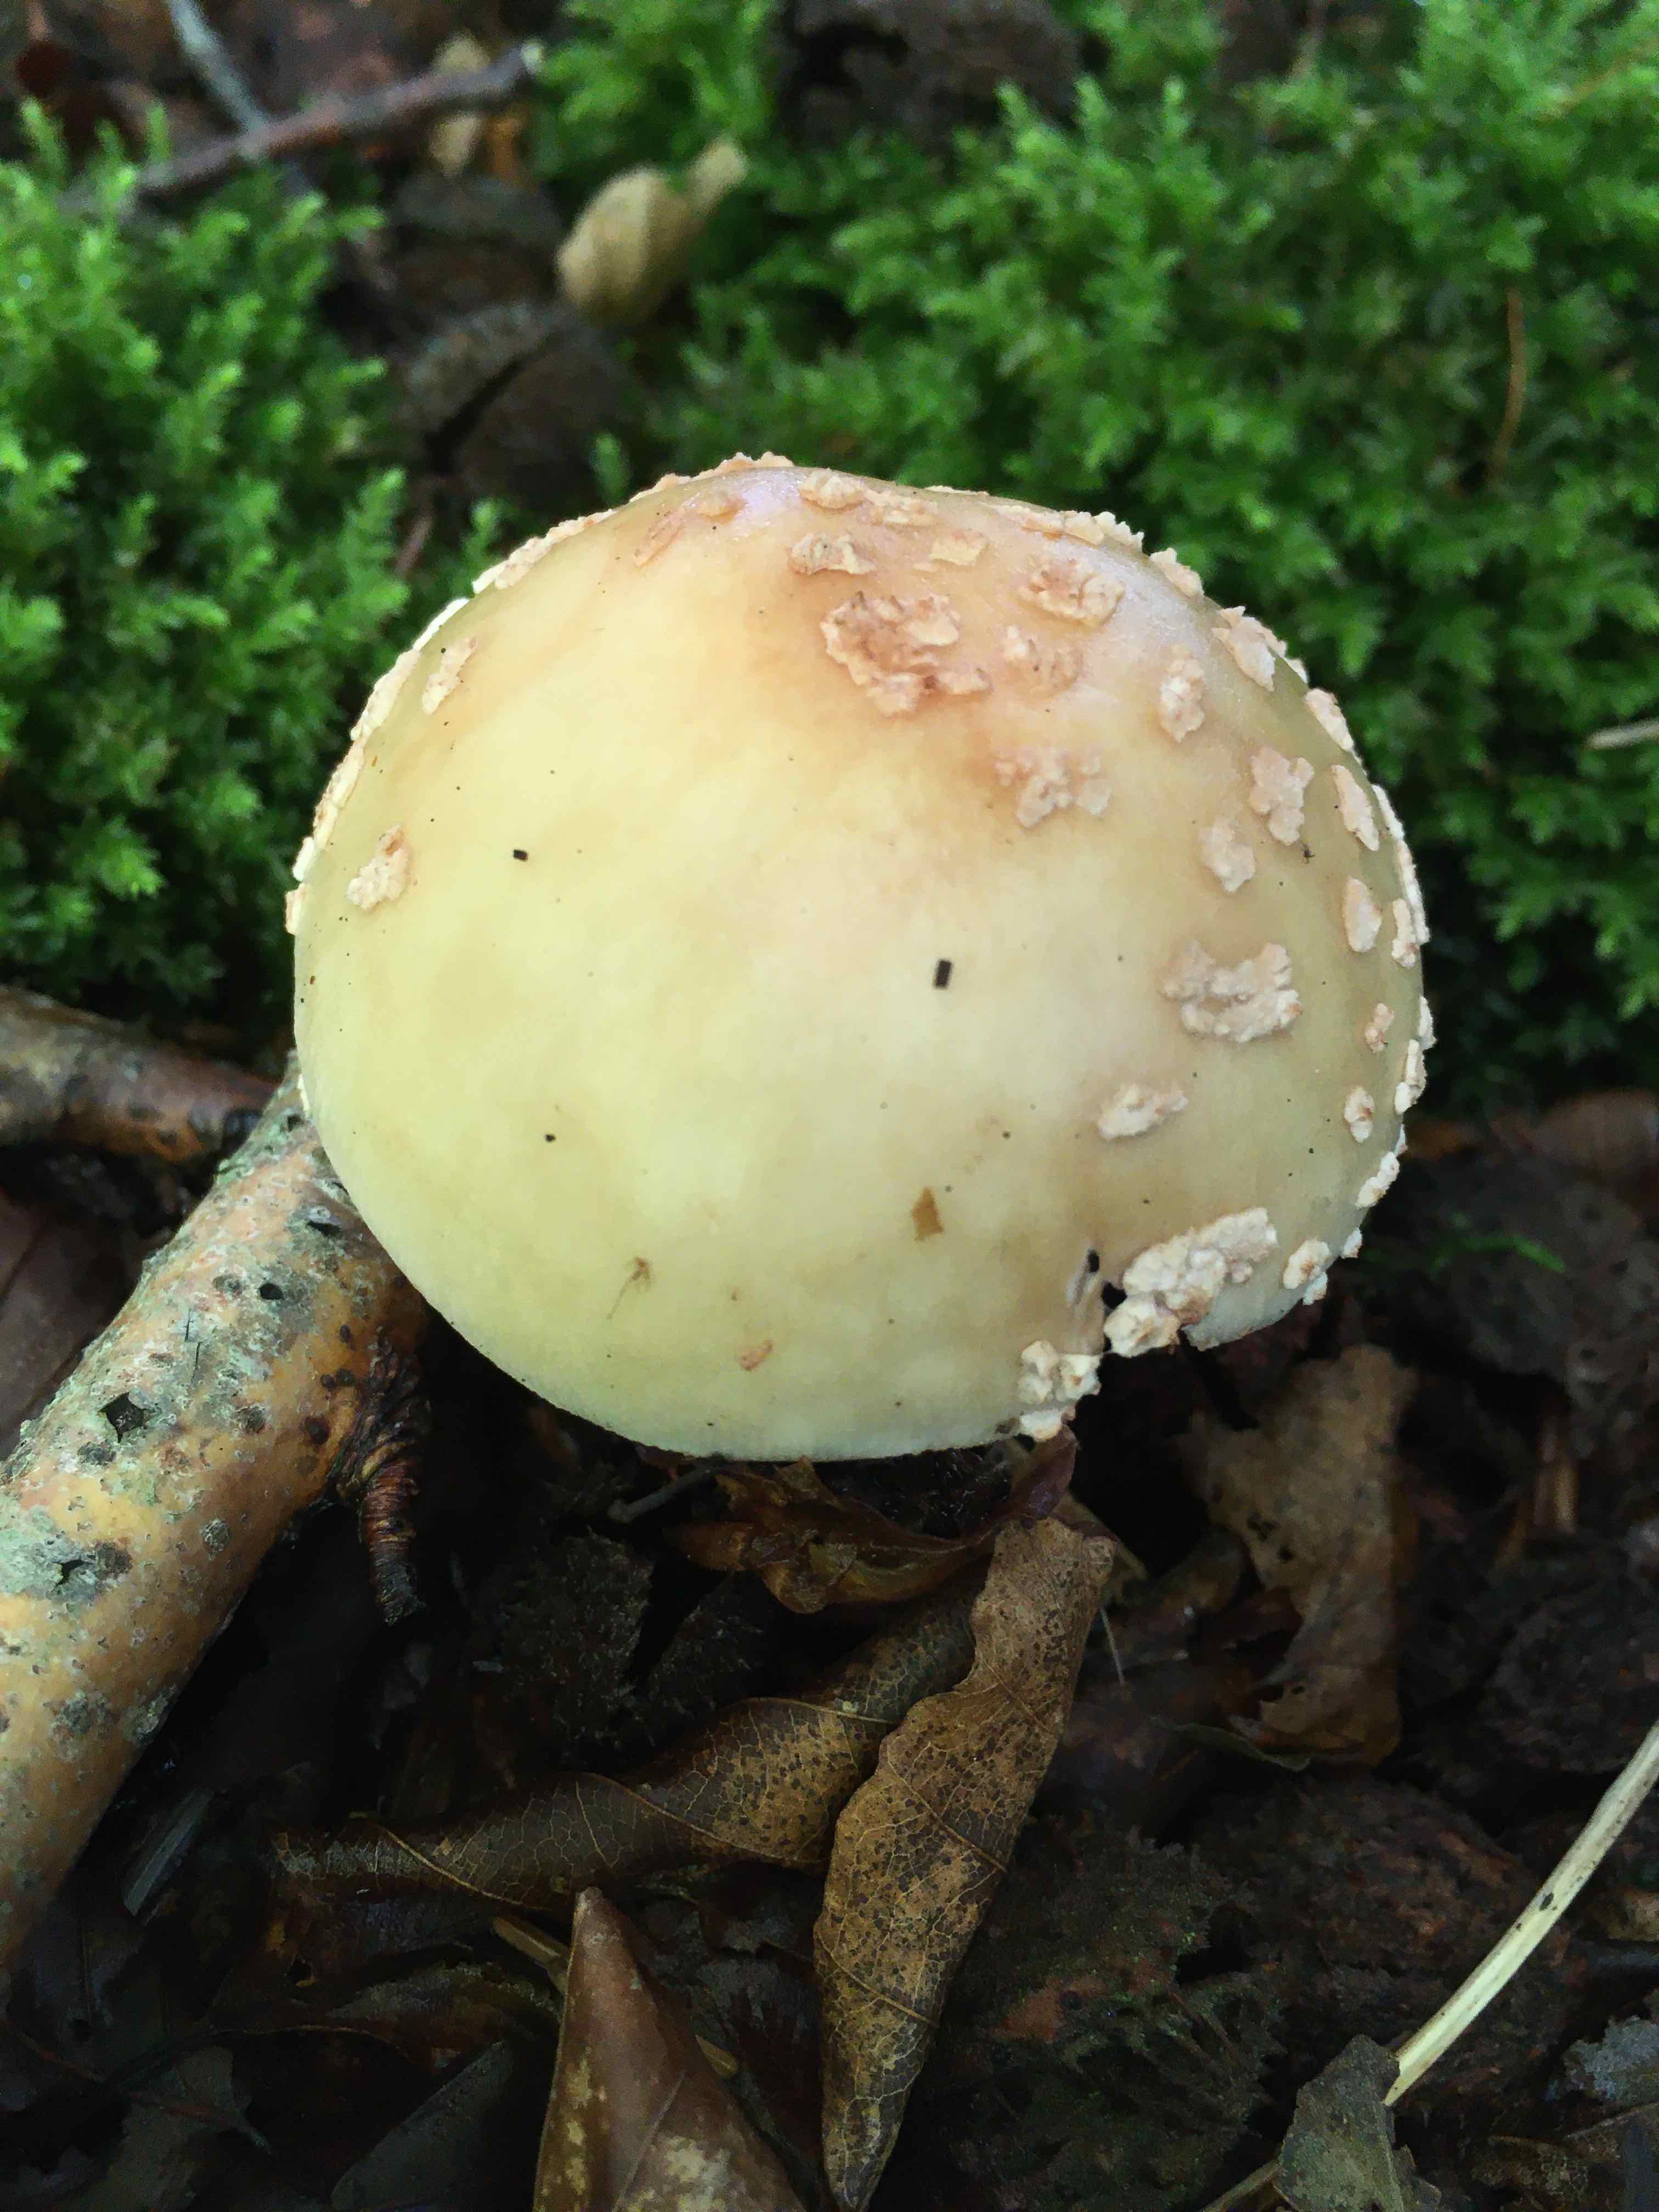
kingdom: Fungi
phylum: Basidiomycota
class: Agaricomycetes
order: Agaricales
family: Amanitaceae
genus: Amanita
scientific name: Amanita rubescens
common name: rødmende fluesvamp
